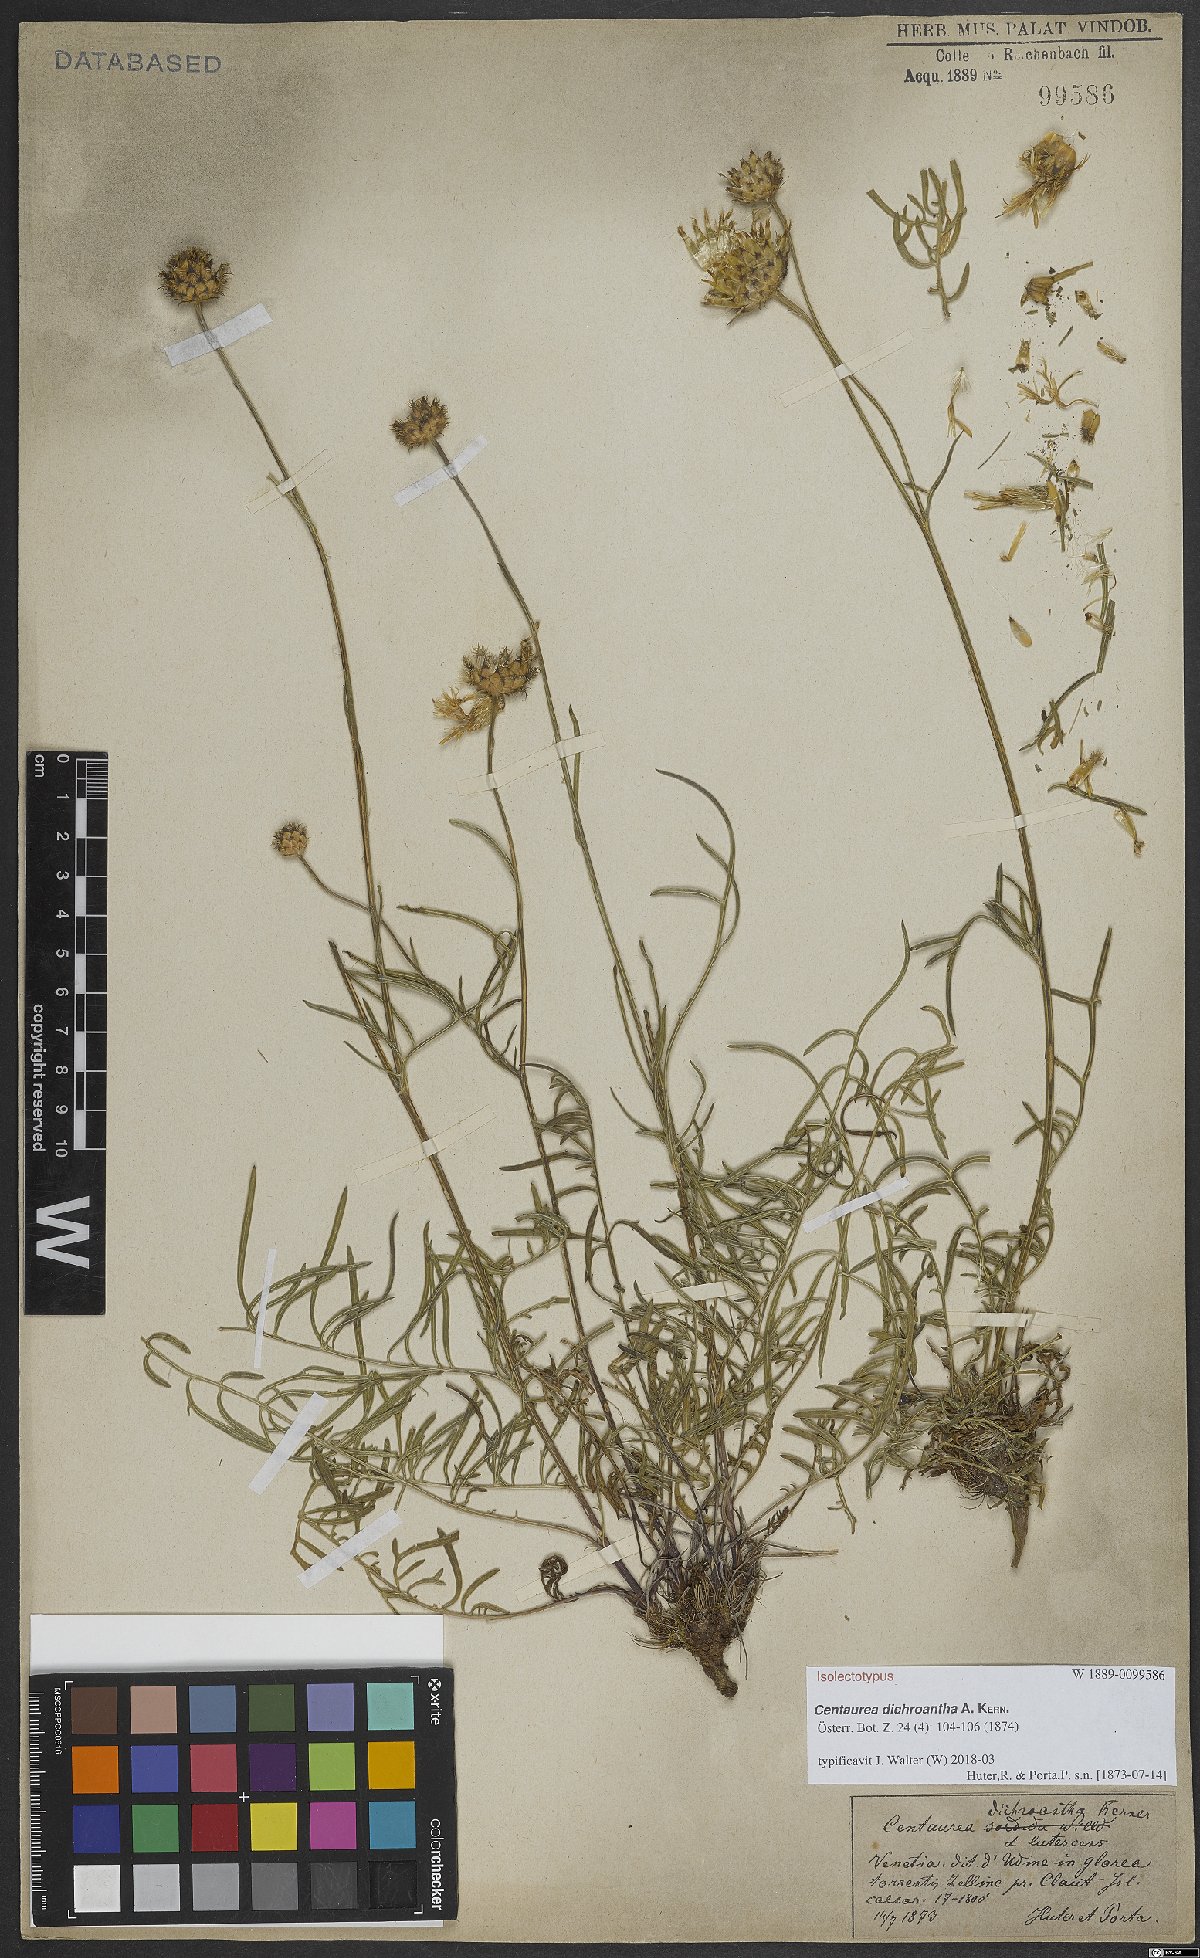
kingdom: Plantae
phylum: Tracheophyta
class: Magnoliopsida
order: Asterales
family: Asteraceae
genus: Centaurea
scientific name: Centaurea dichroantha
